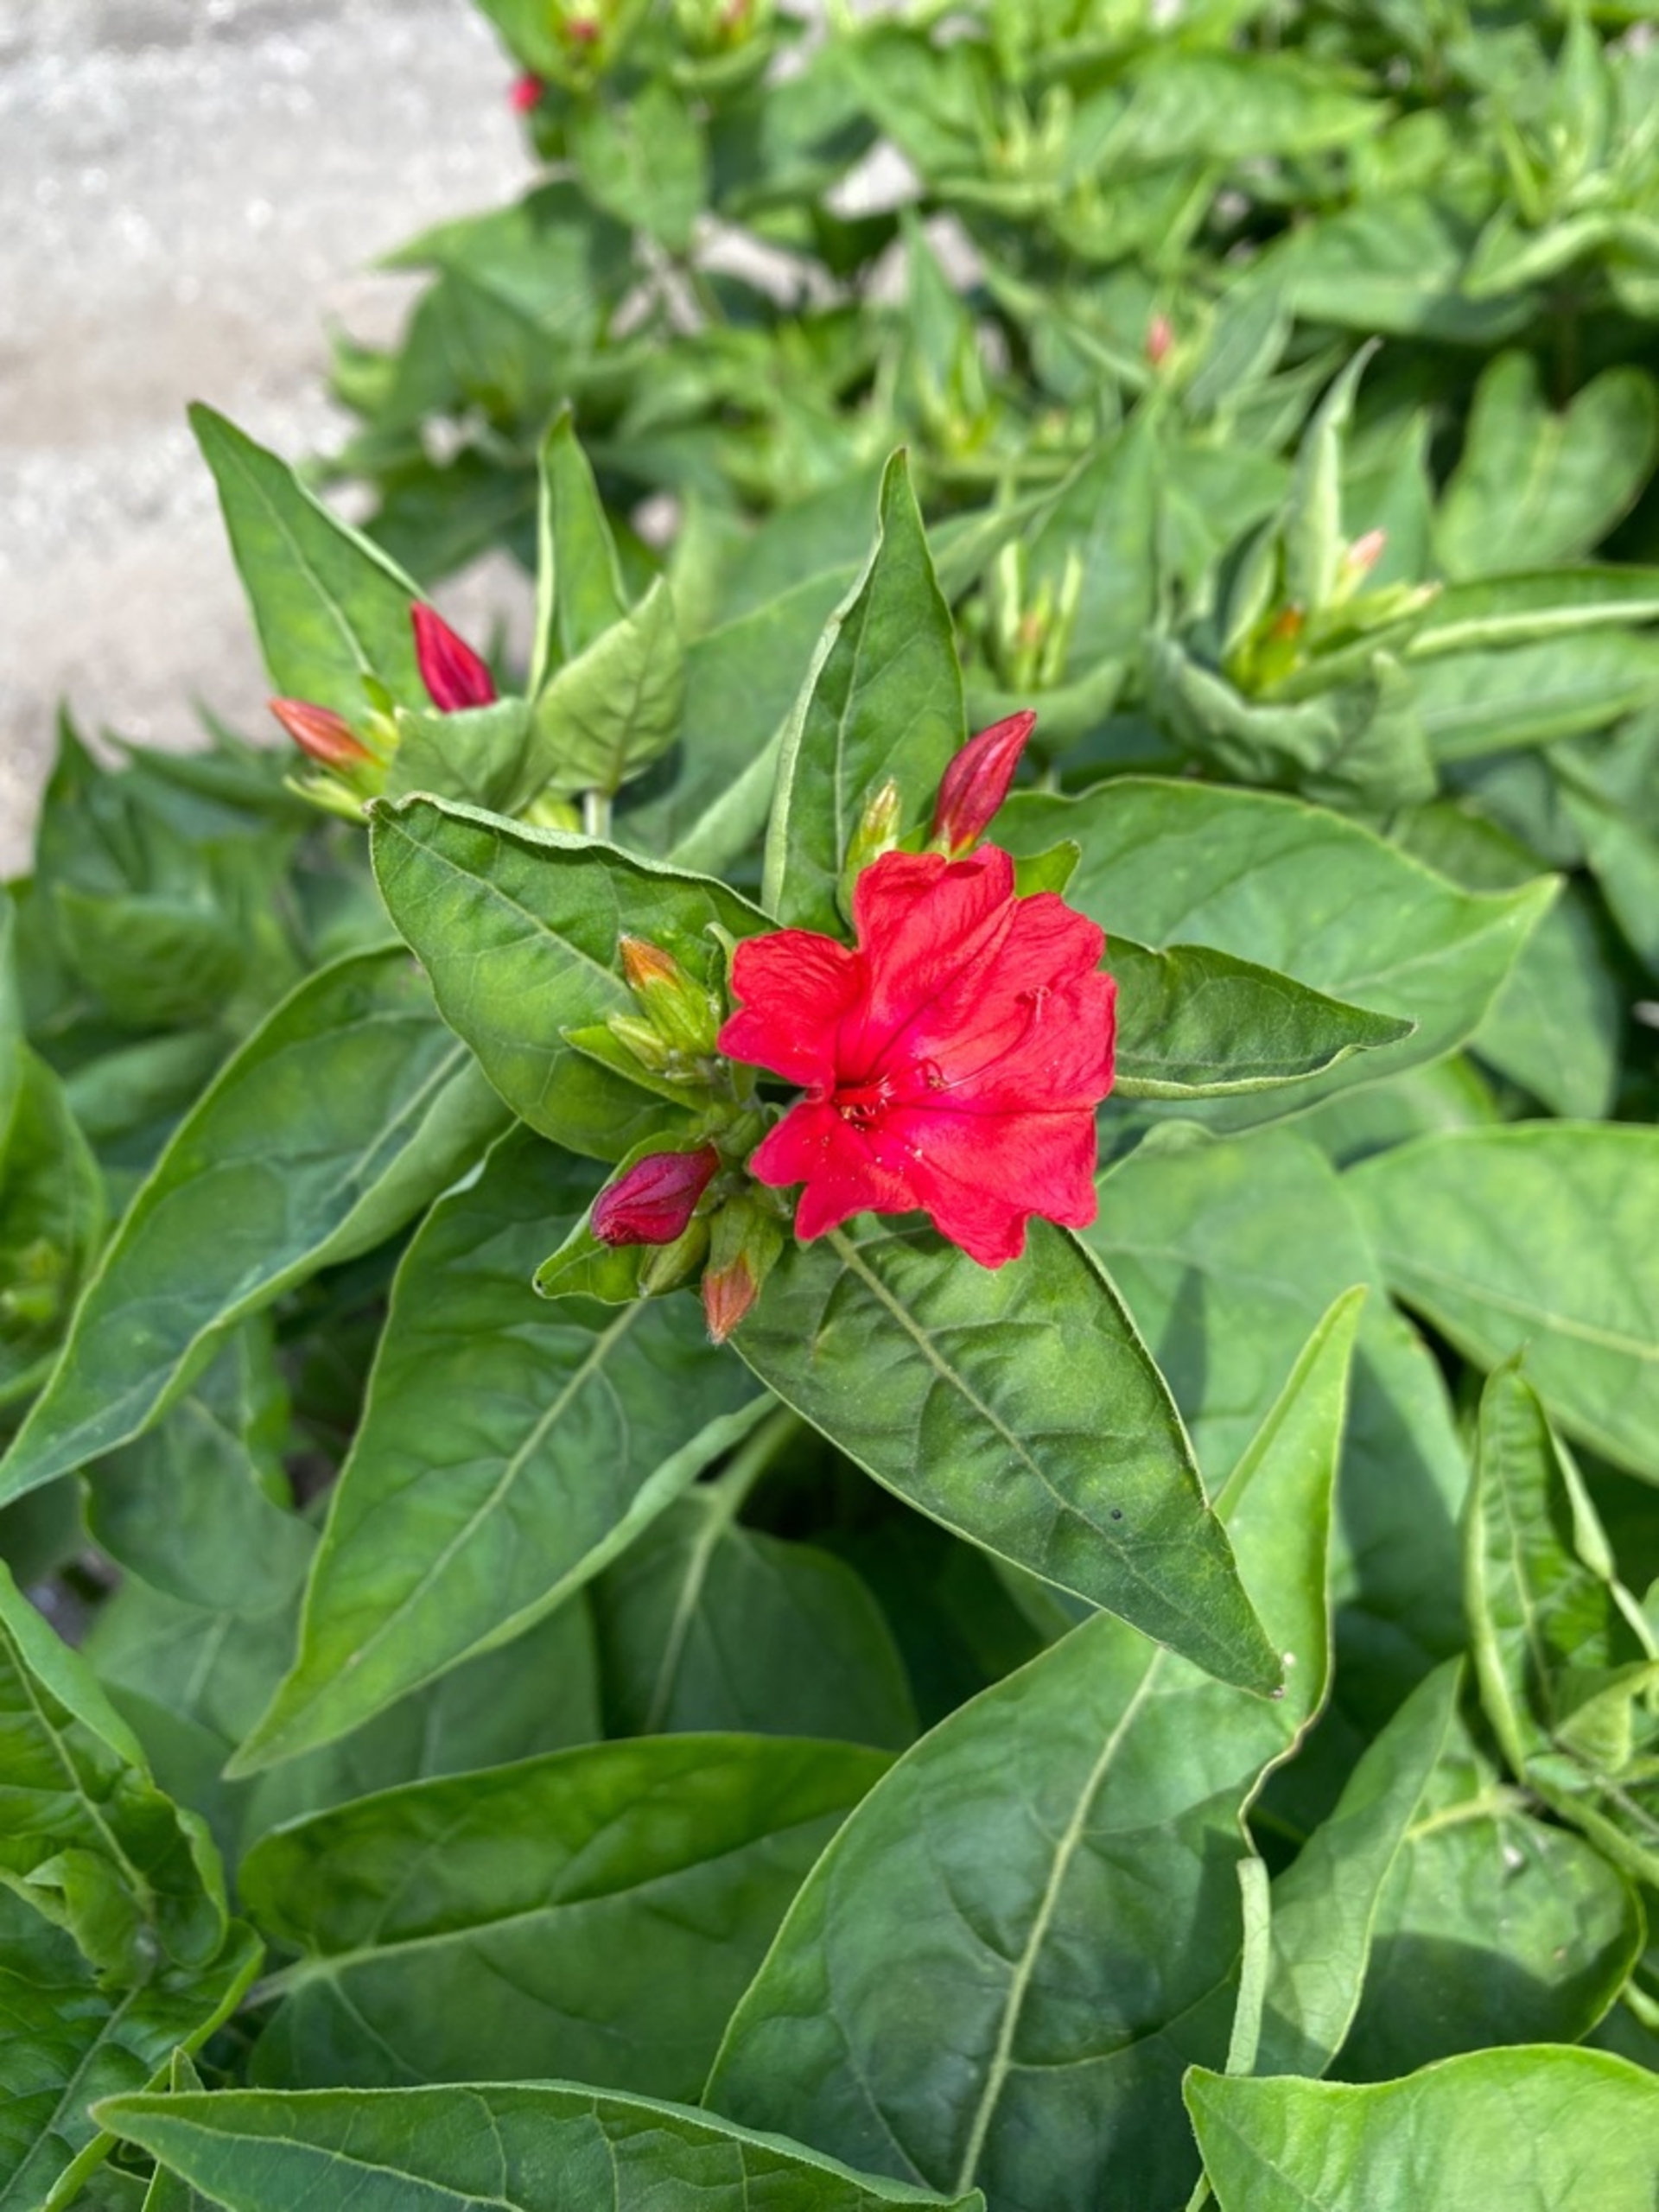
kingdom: Plantae
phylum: Tracheophyta
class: Magnoliopsida
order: Caryophyllales
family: Nyctaginaceae
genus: Mirabilis
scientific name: Mirabilis jalapa
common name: Vidunderblomst
